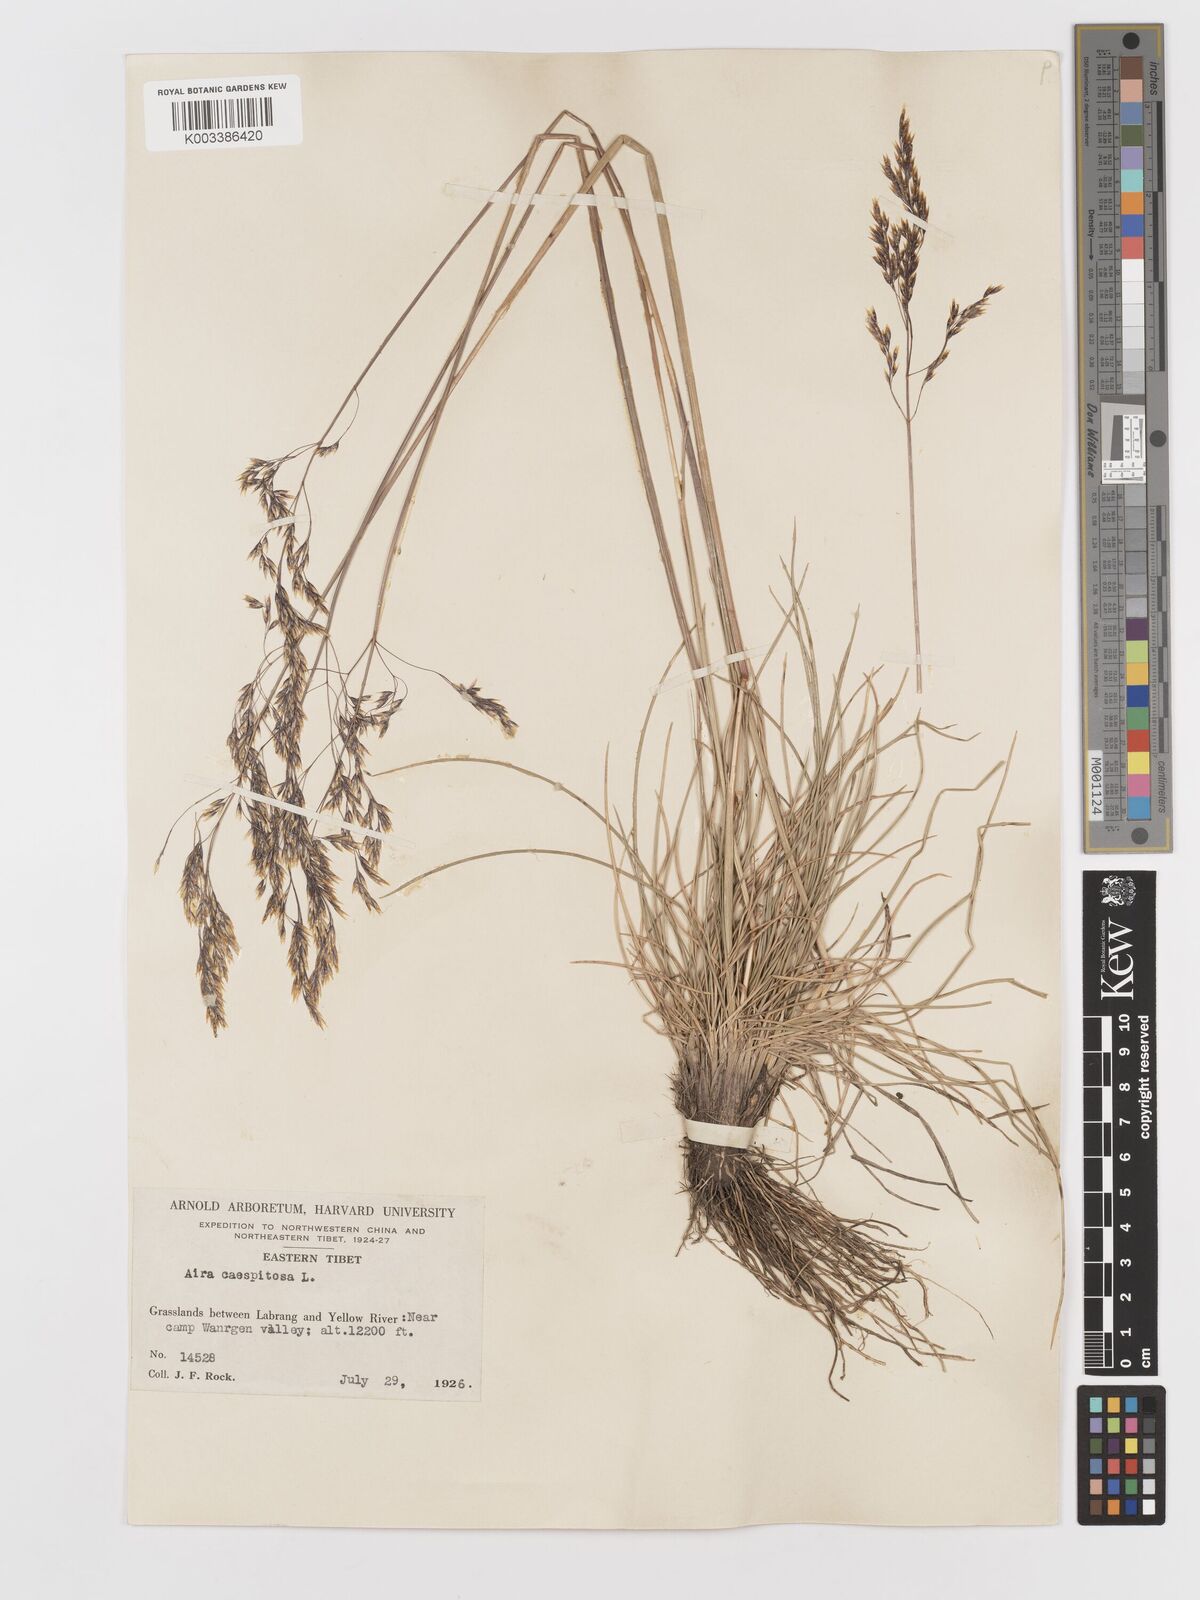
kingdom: Plantae
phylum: Tracheophyta
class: Liliopsida
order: Poales
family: Poaceae
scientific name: Poaceae
